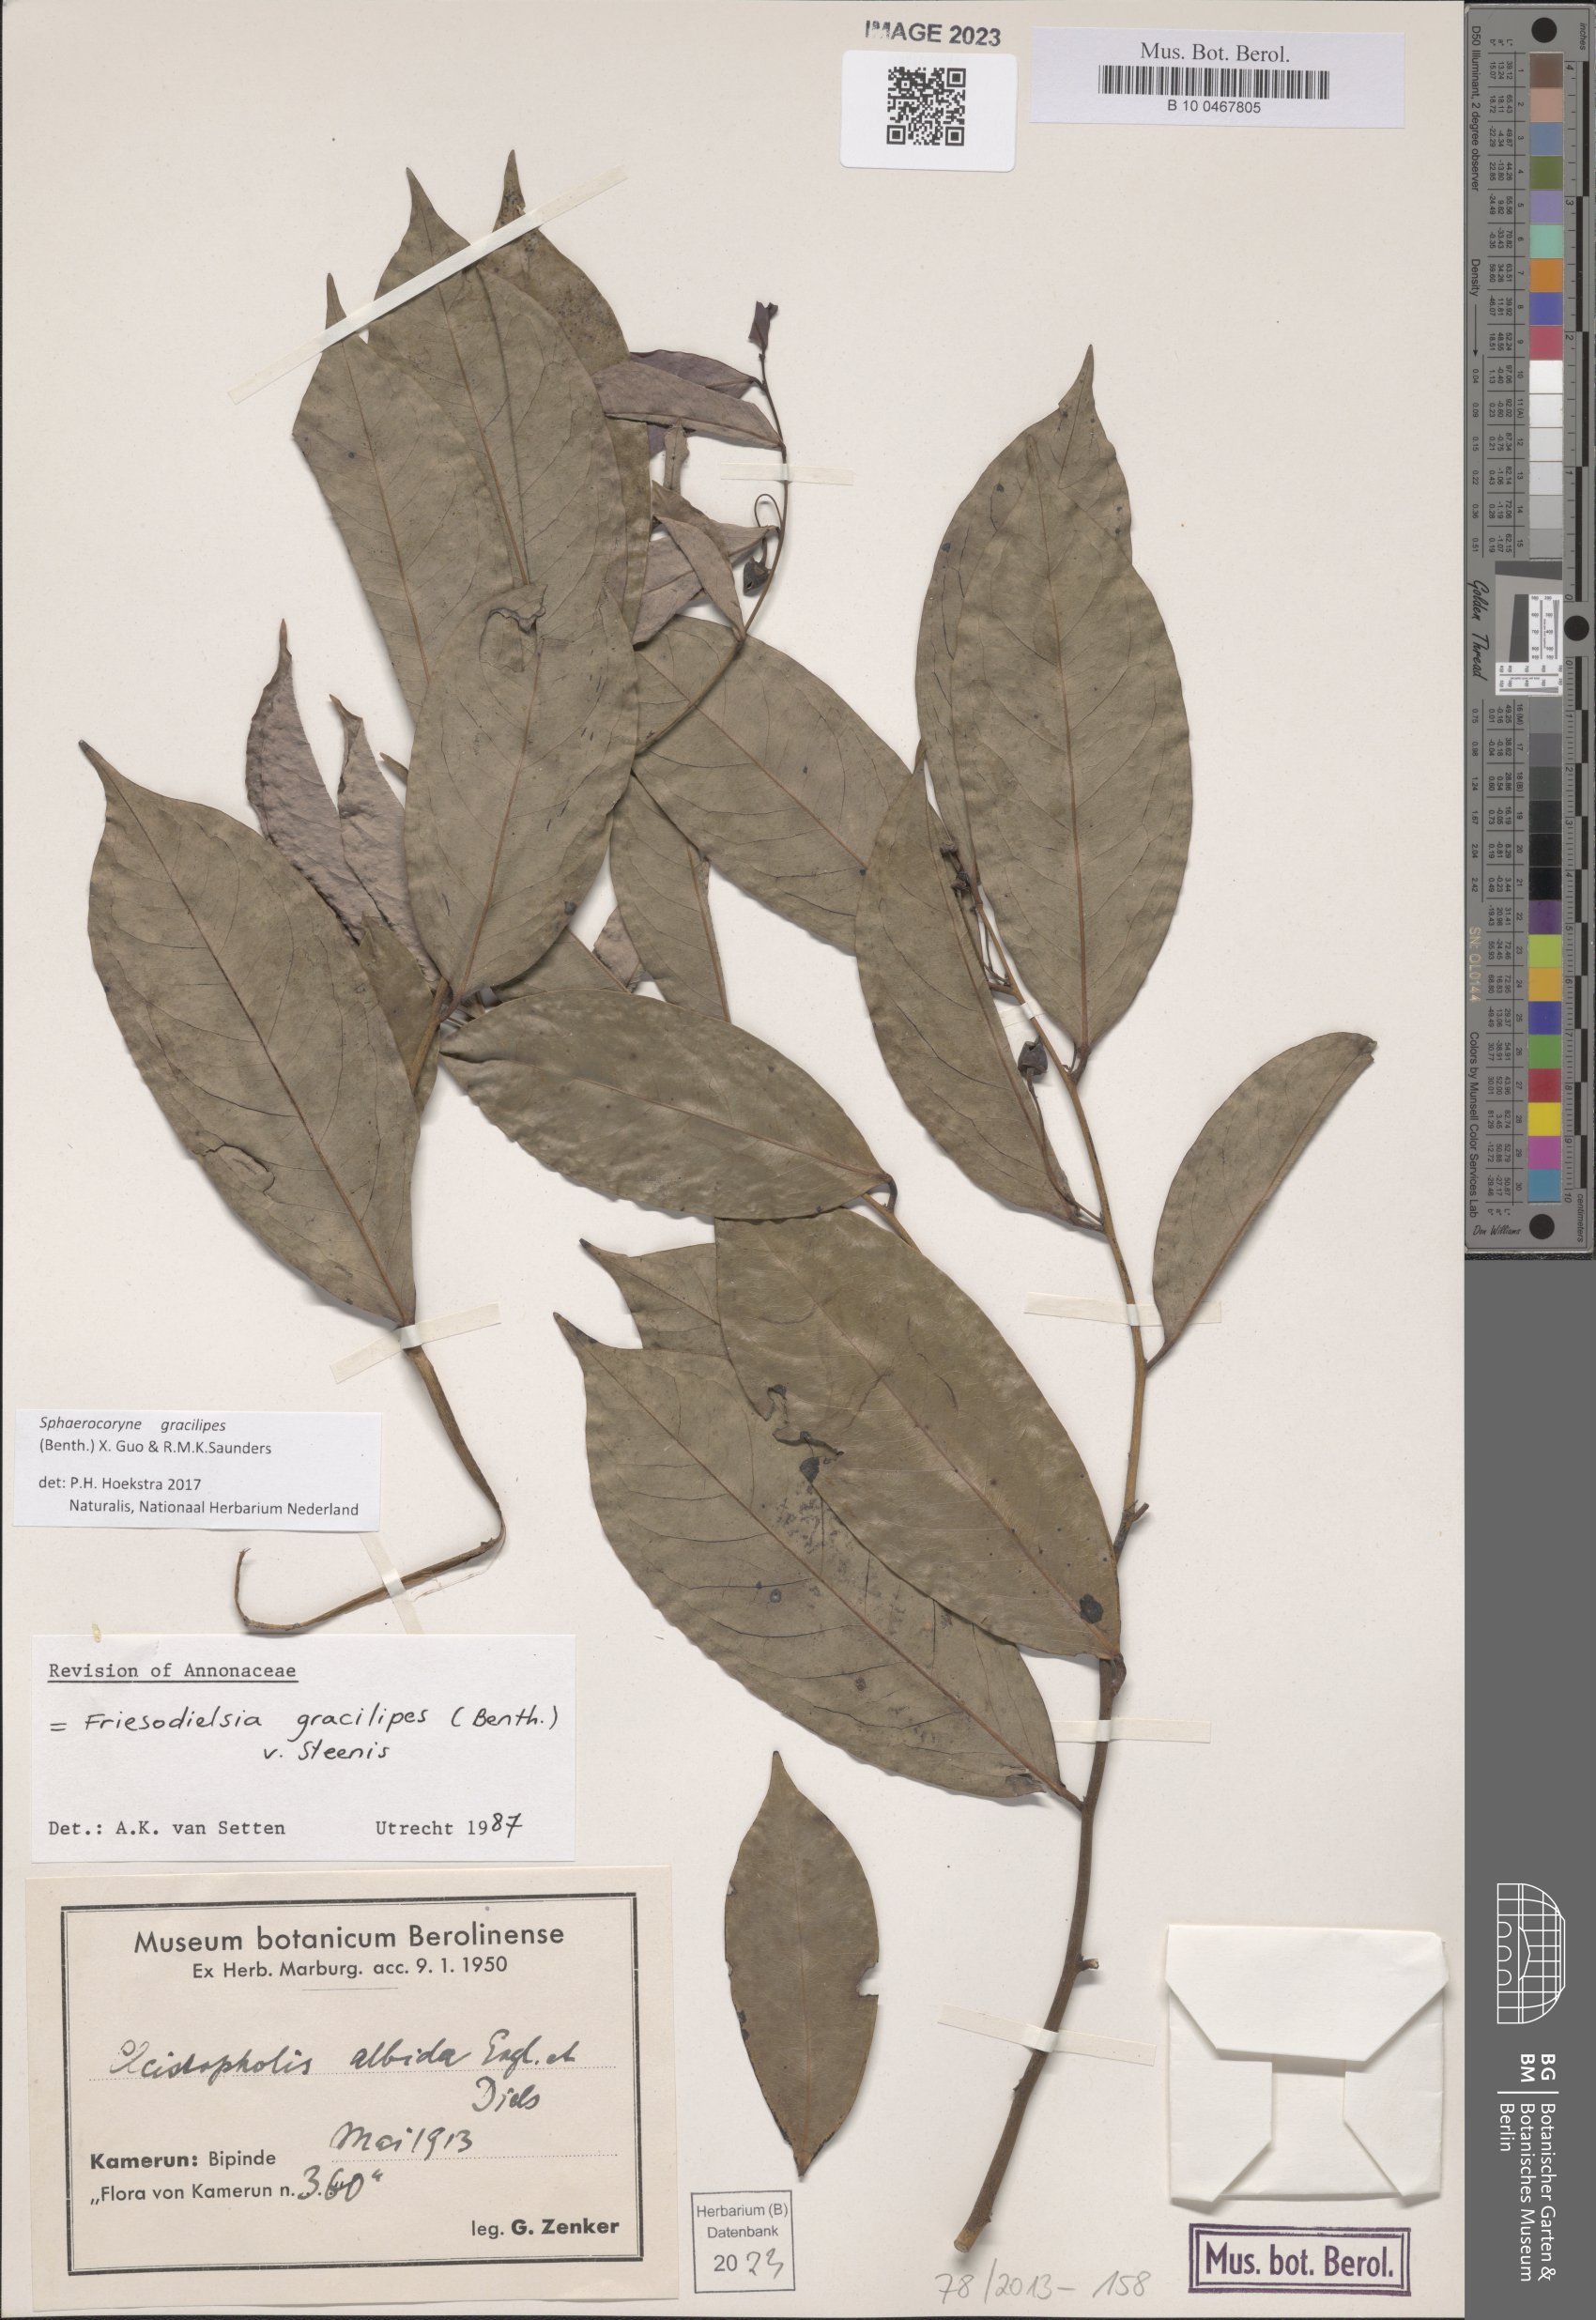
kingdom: Plantae
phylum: Tracheophyta
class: Magnoliopsida
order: Magnoliales
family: Annonaceae
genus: Friesodielsia
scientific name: Friesodielsia gracilipes
